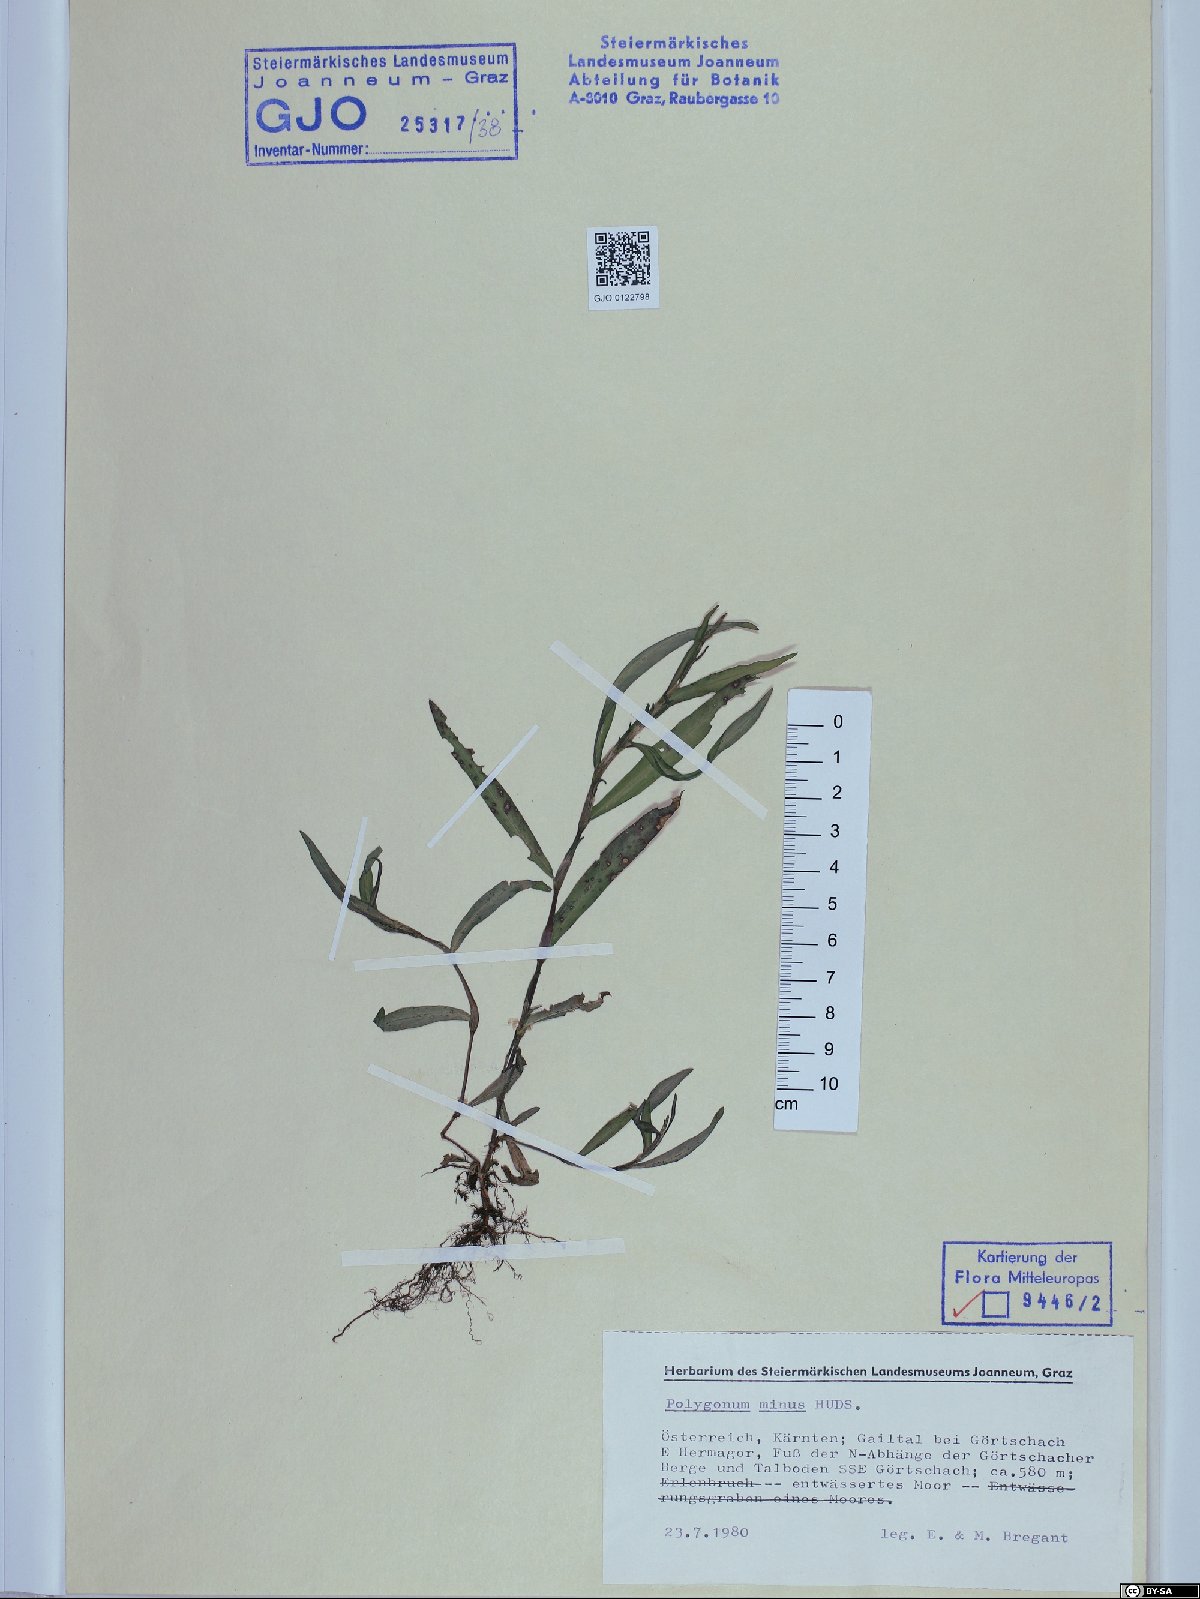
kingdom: Plantae
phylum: Tracheophyta
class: Magnoliopsida
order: Caryophyllales
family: Polygonaceae
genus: Persicaria
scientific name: Persicaria minor
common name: Small water-pepper
